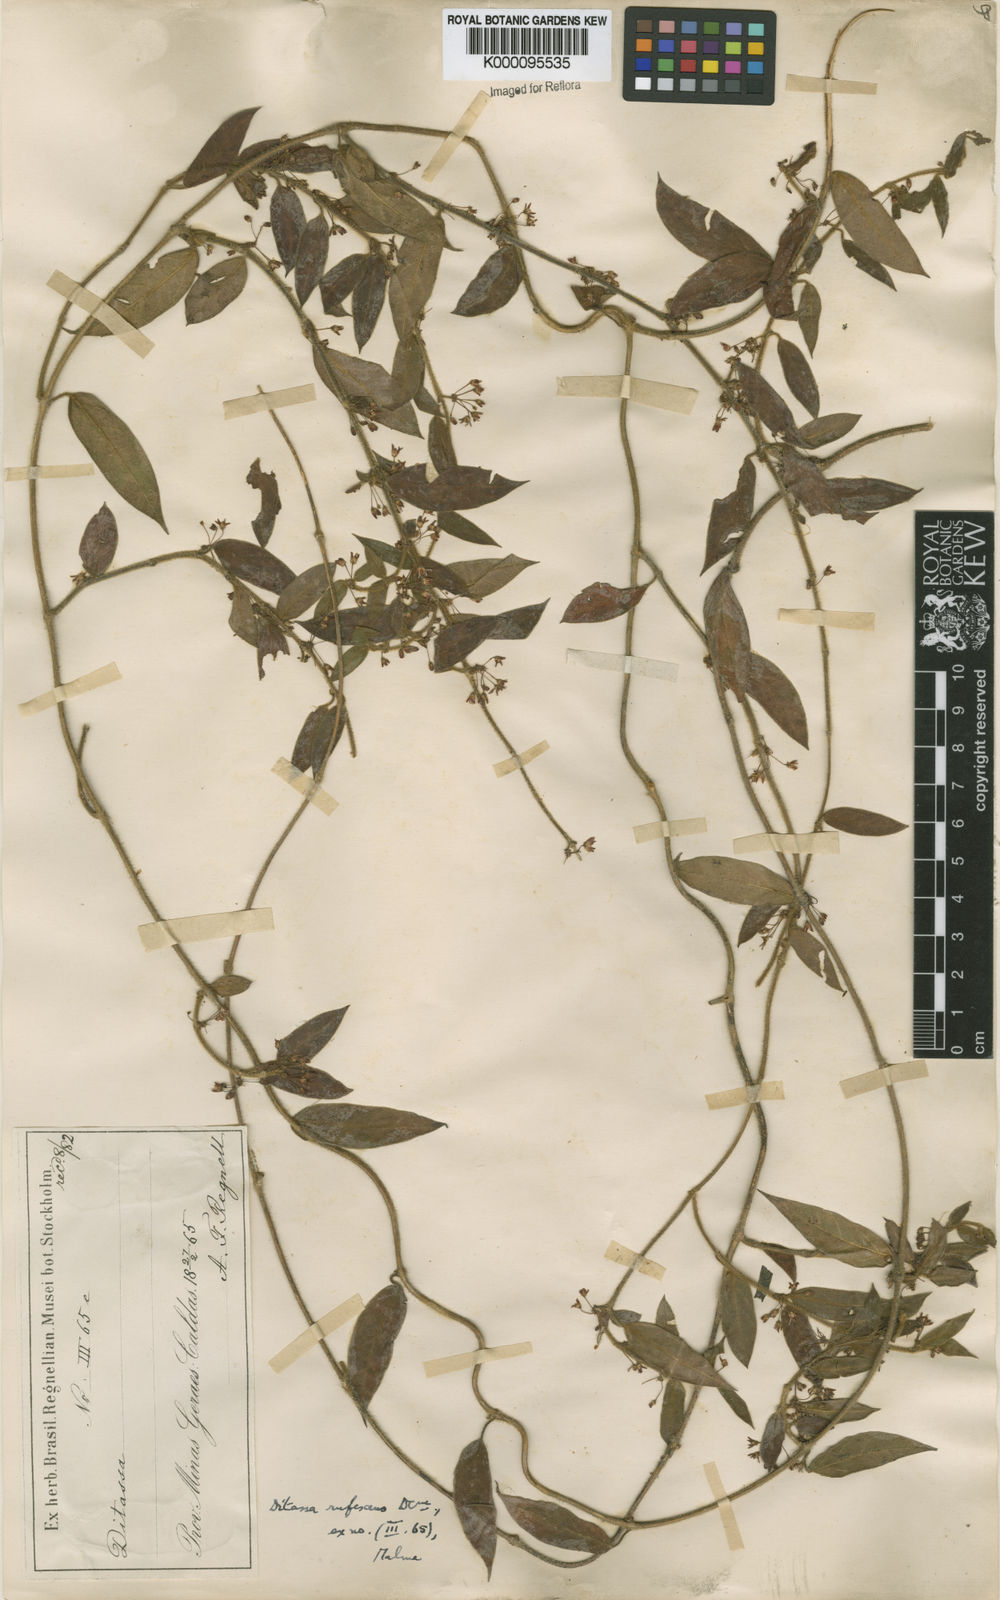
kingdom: Plantae
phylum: Tracheophyta
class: Magnoliopsida
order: Gentianales
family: Apocynaceae
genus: Ditassa
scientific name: Ditassa hispida
